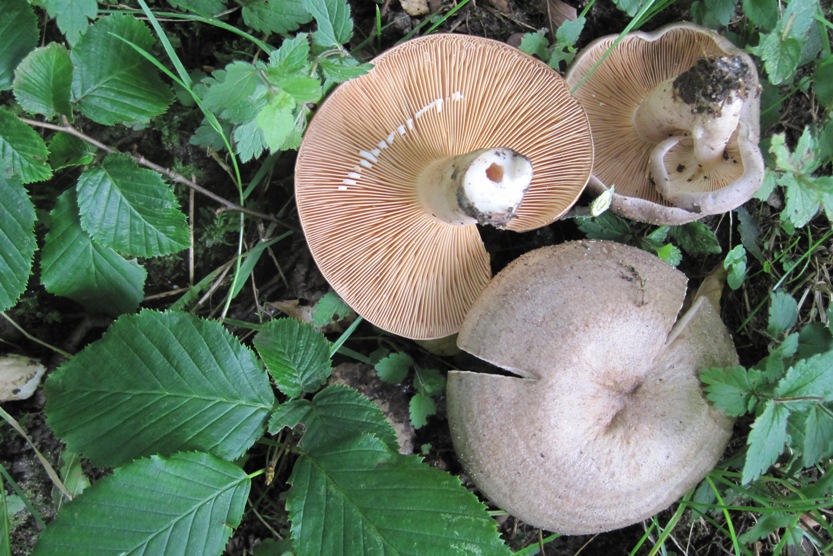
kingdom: Fungi
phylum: Basidiomycota
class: Agaricomycetes
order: Russulales
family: Russulaceae
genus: Lactarius
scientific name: Lactarius circellatus
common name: avnbøg-mælkehat
